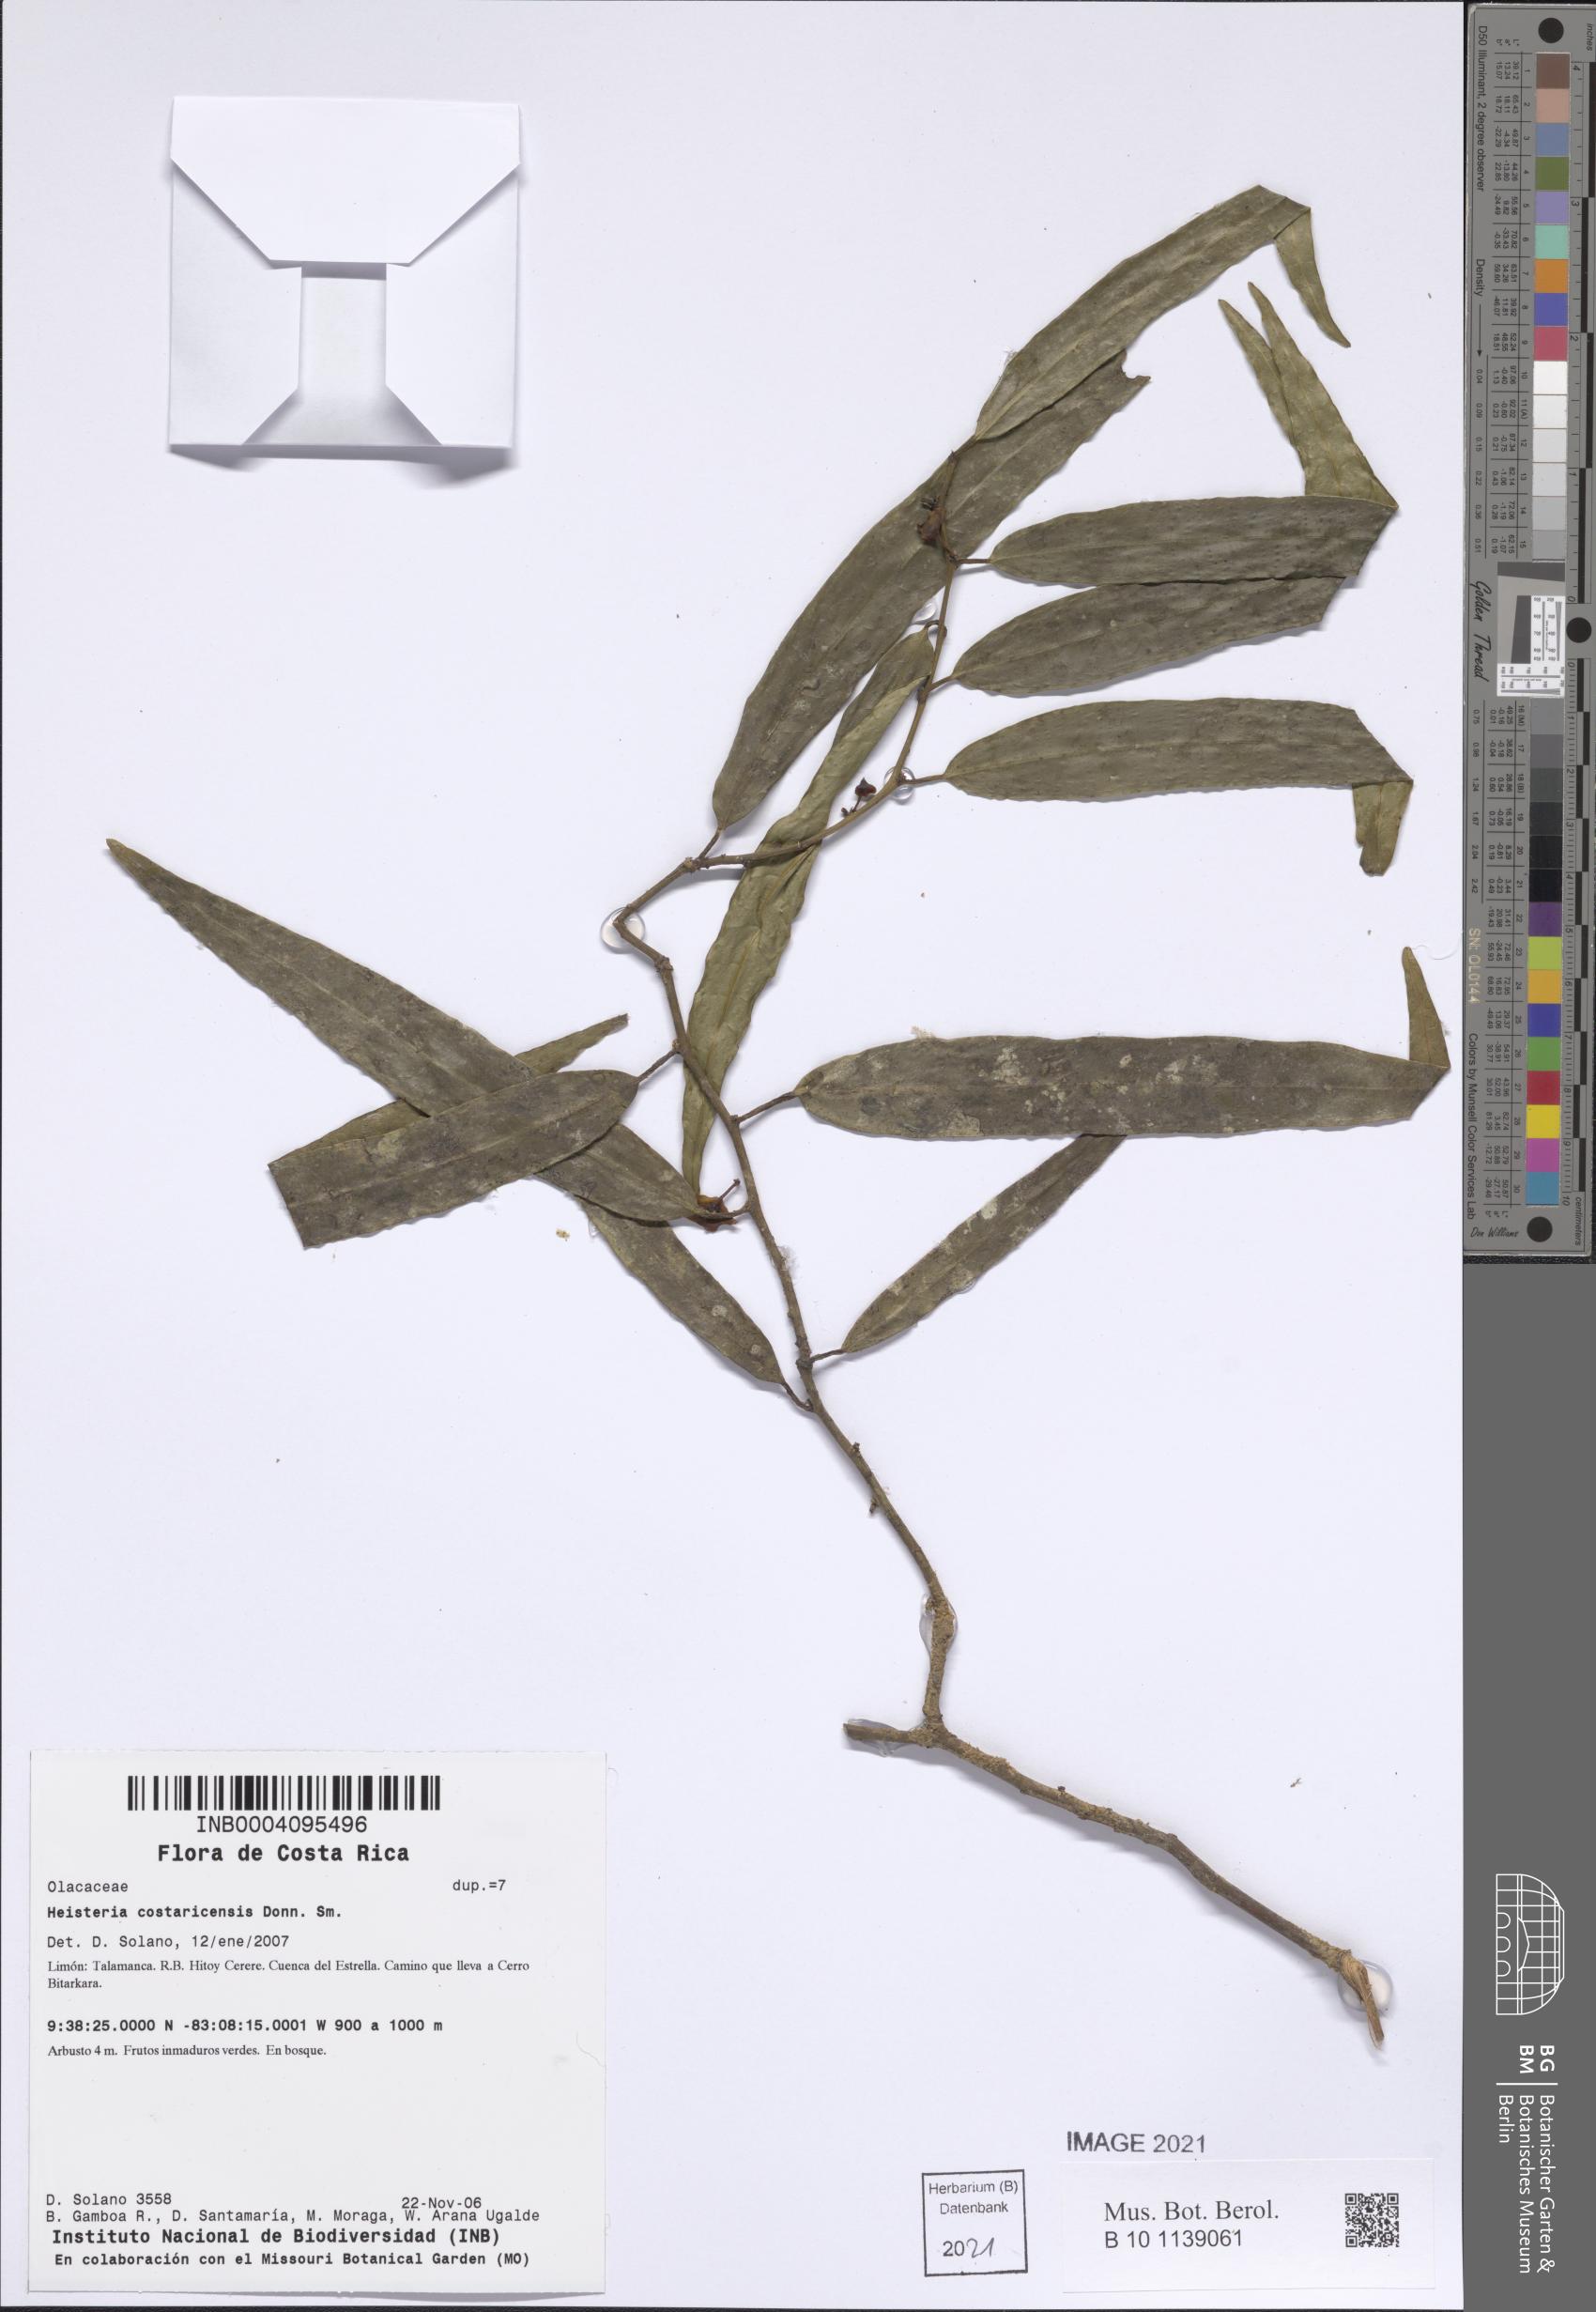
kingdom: Plantae
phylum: Tracheophyta
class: Magnoliopsida
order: Santalales
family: Erythropalaceae
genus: Heisteria
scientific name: Heisteria macrophylla
